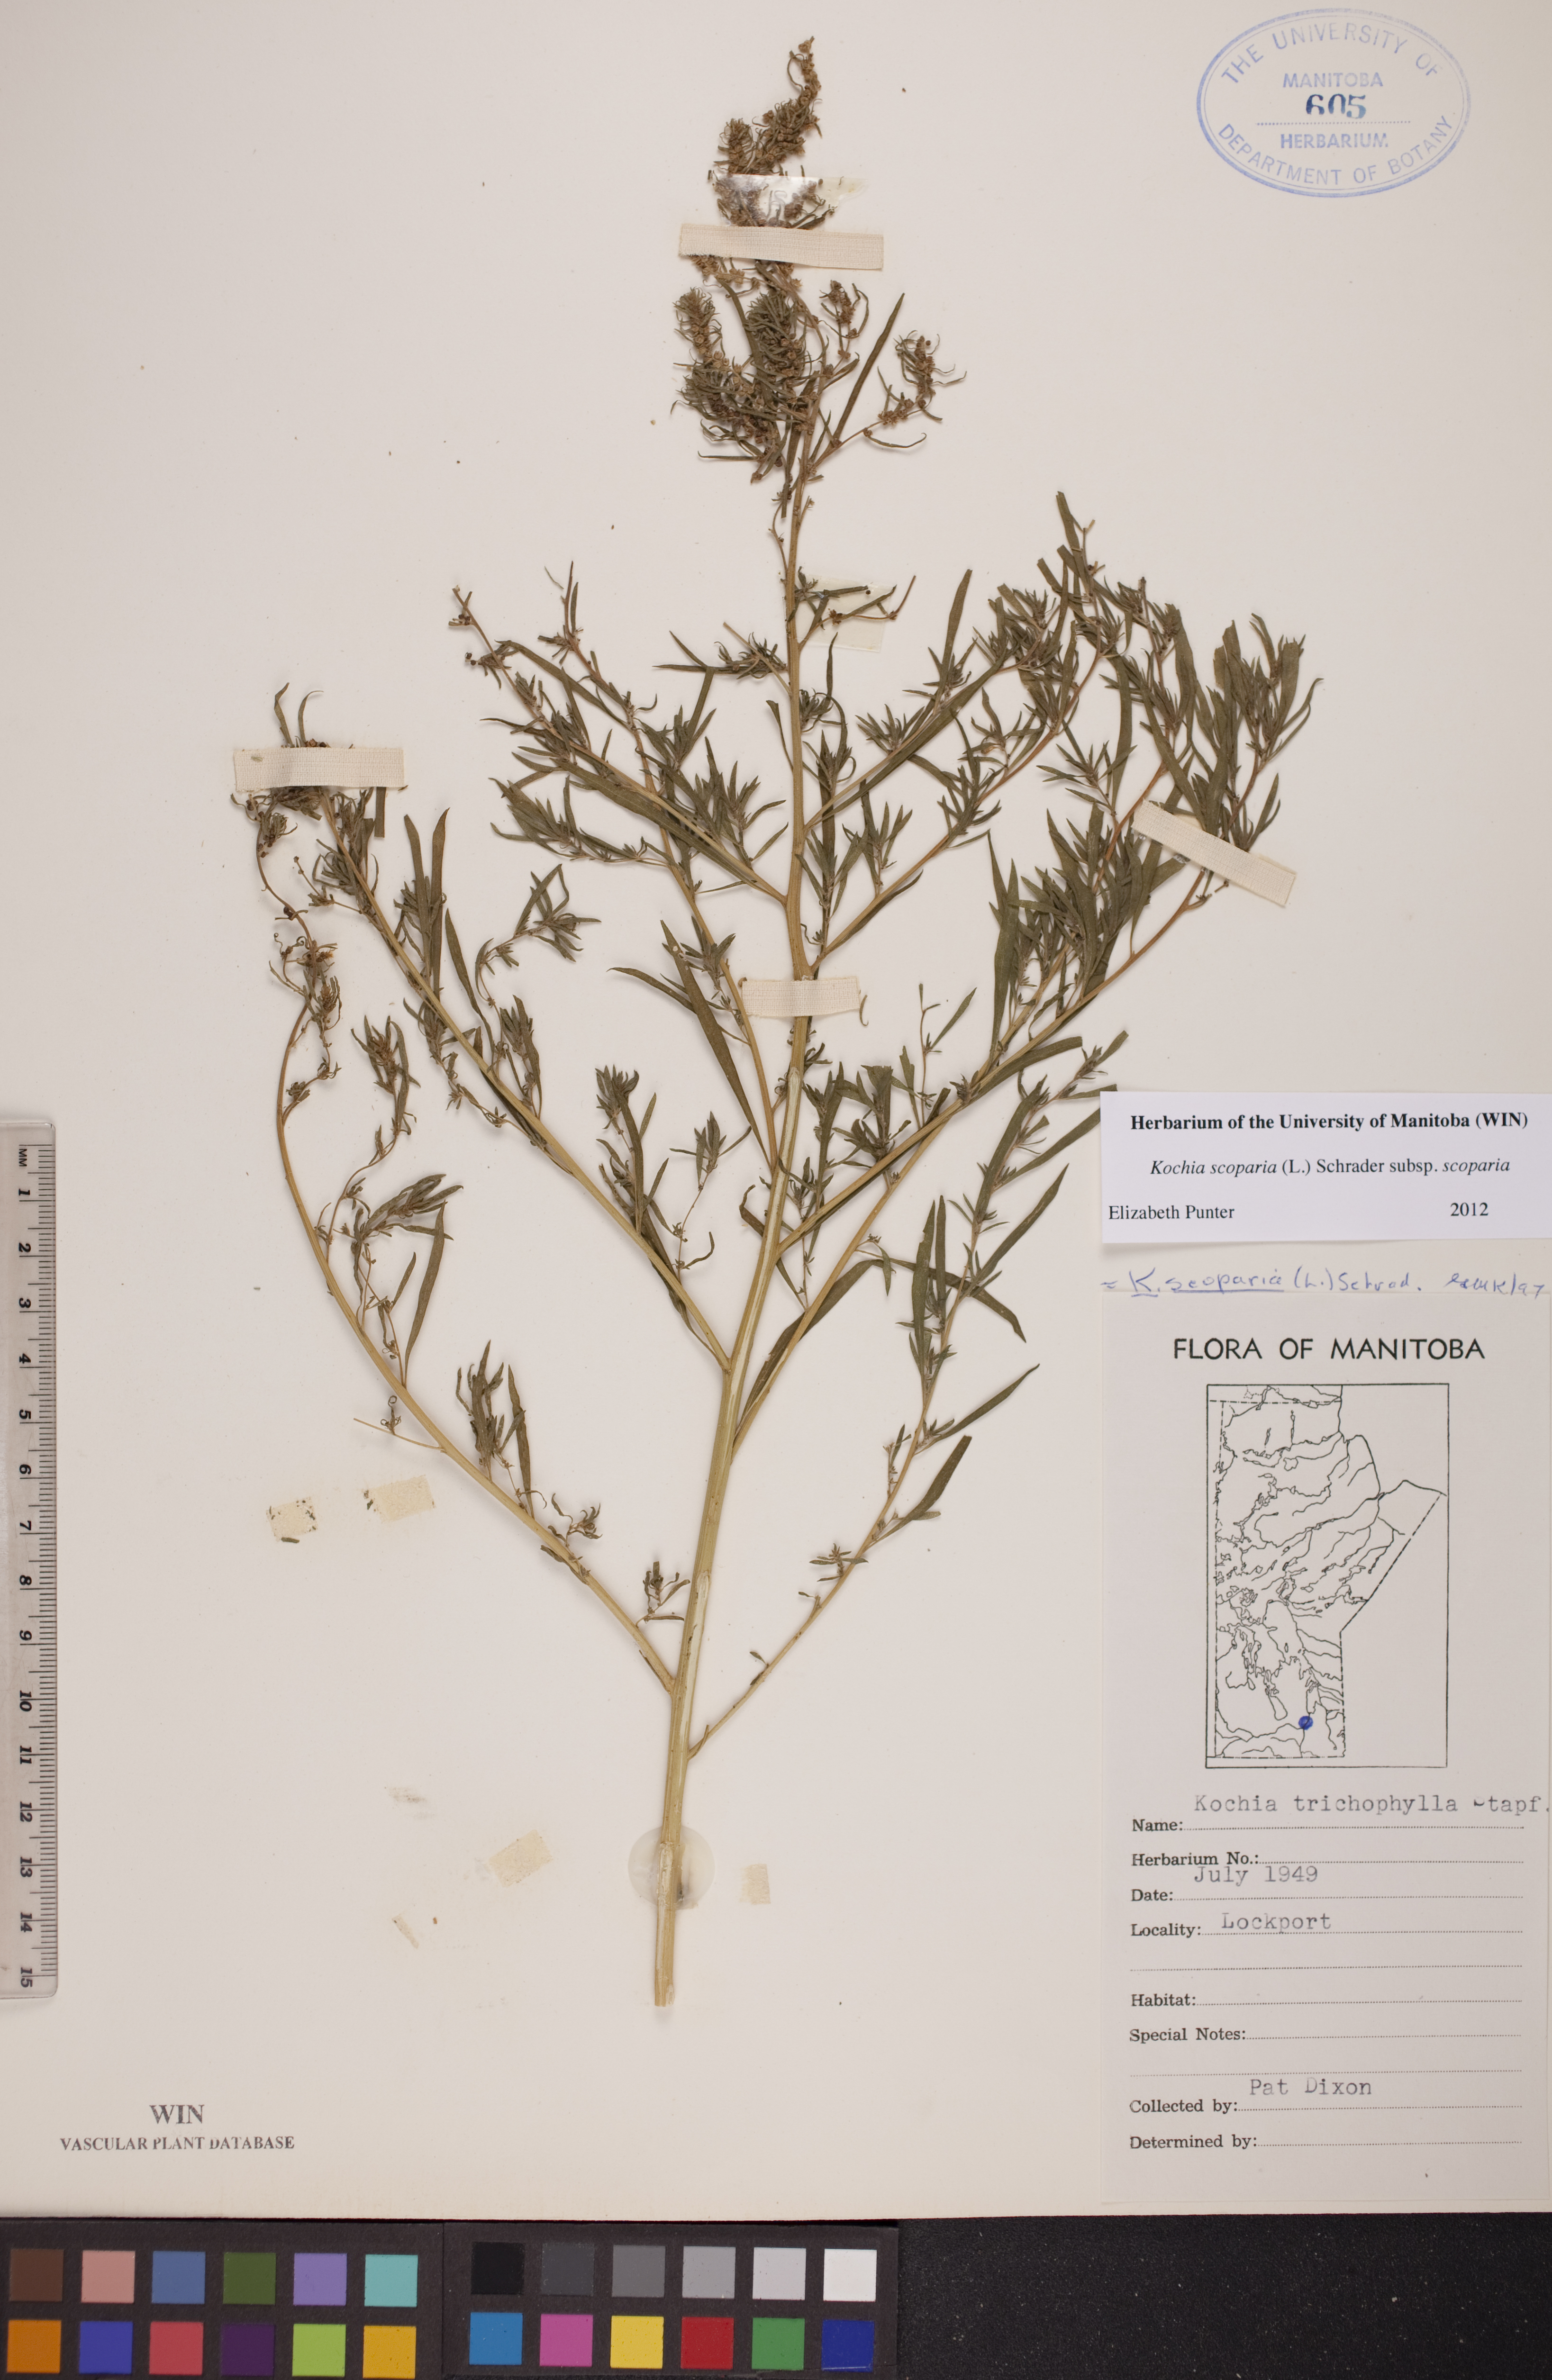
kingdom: Plantae
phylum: Tracheophyta
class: Magnoliopsida
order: Caryophyllales
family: Amaranthaceae
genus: Bassia
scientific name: Bassia scoparia
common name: Belvedere
